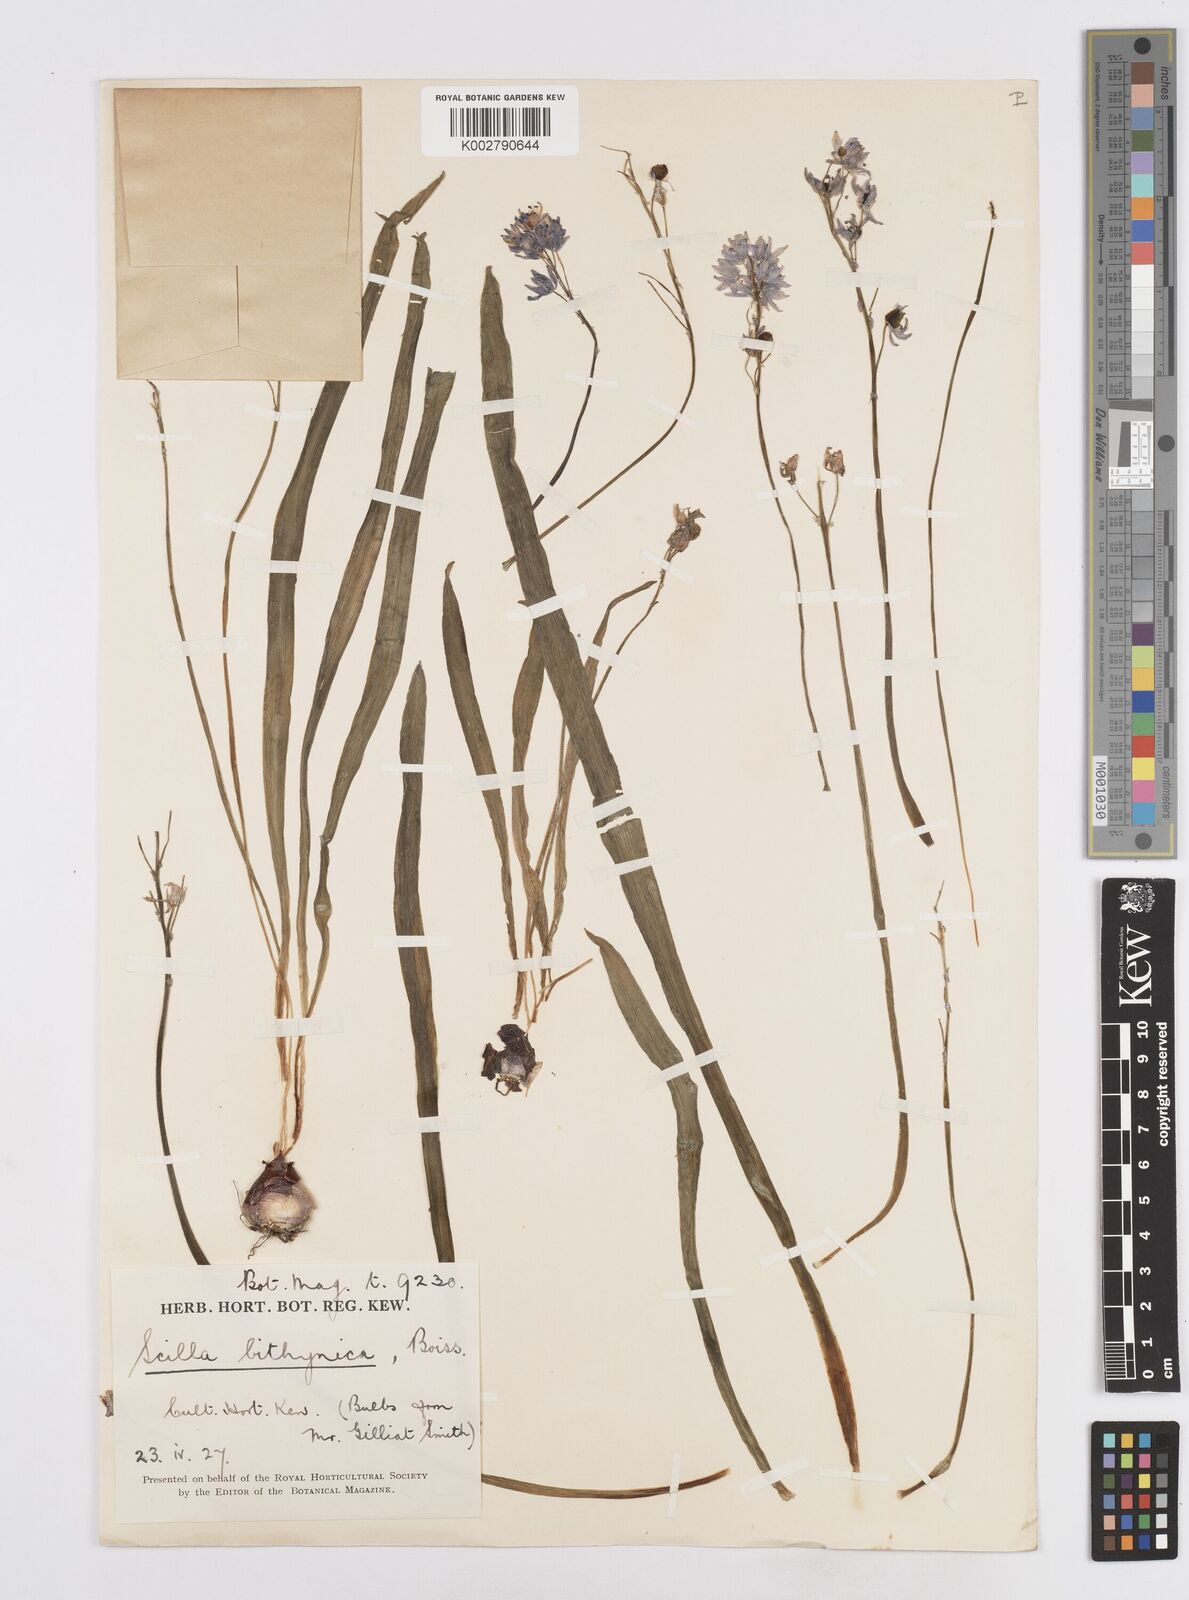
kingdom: Plantae
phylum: Tracheophyta
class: Liliopsida
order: Asparagales
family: Asparagaceae
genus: Scilla
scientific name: Scilla bithynica
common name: Turkish squill
